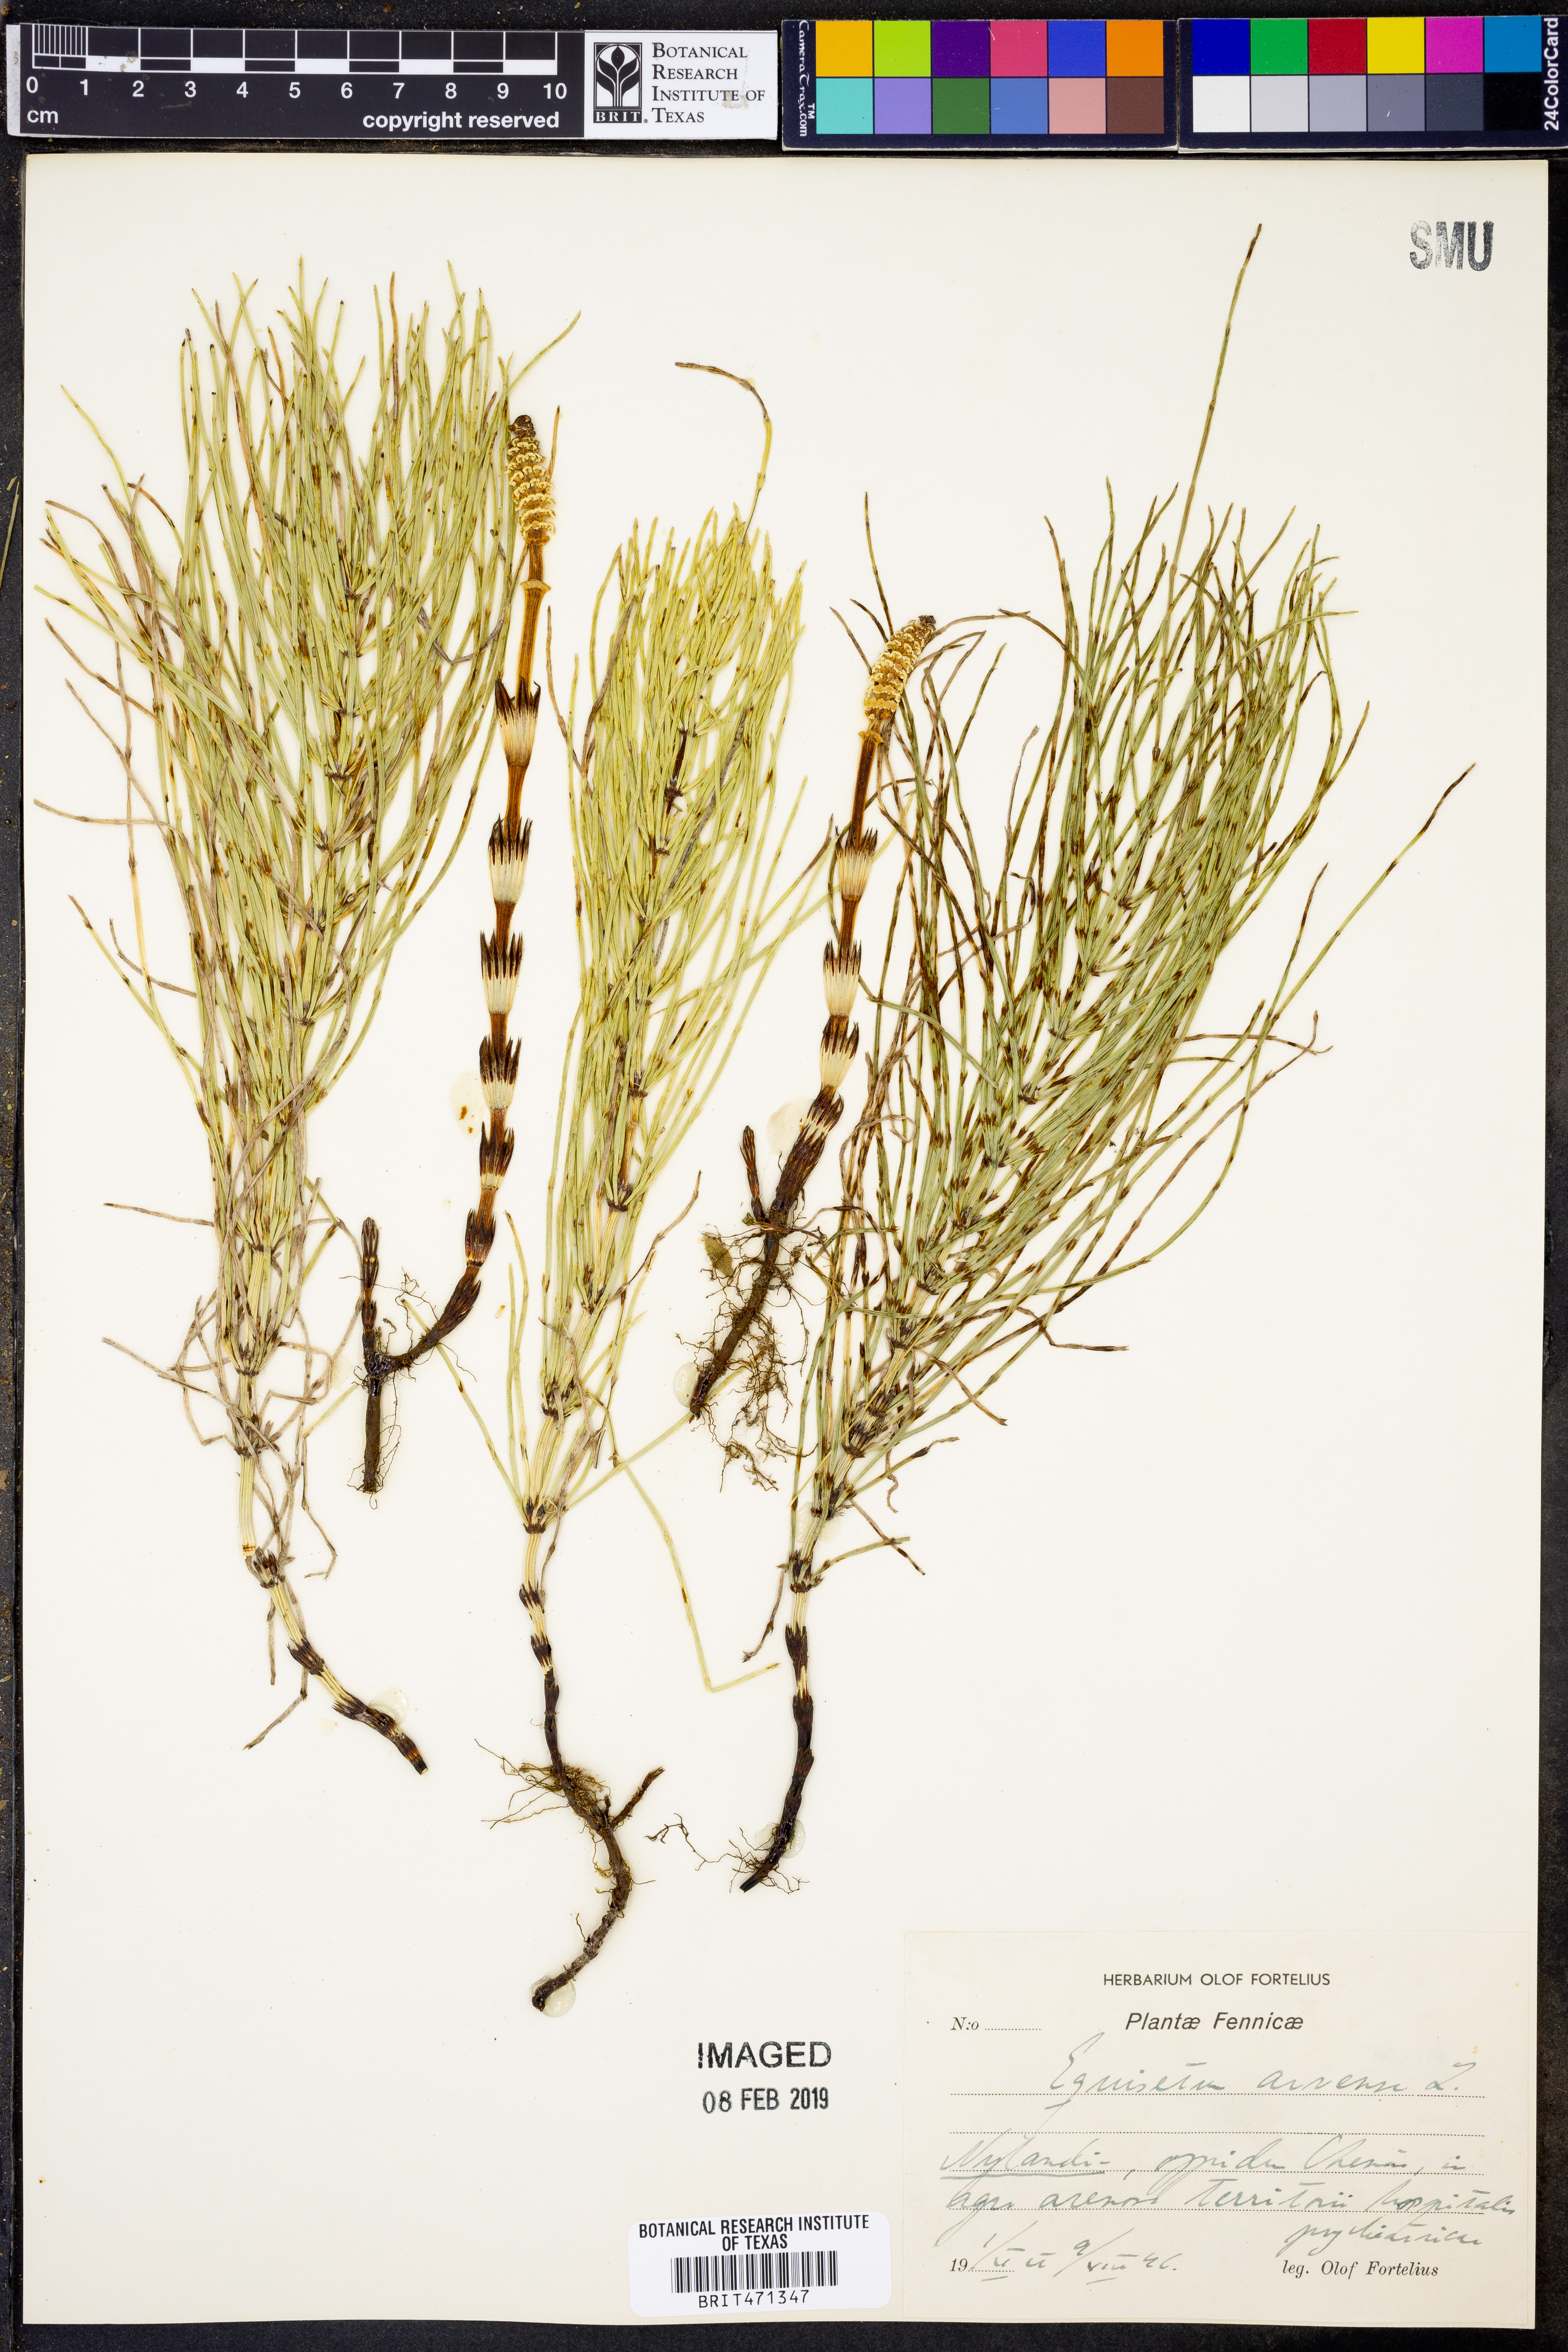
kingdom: Plantae
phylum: Tracheophyta
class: Polypodiopsida
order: Equisetales
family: Equisetaceae
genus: Equisetum
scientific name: Equisetum arvense
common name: Field horsetail
